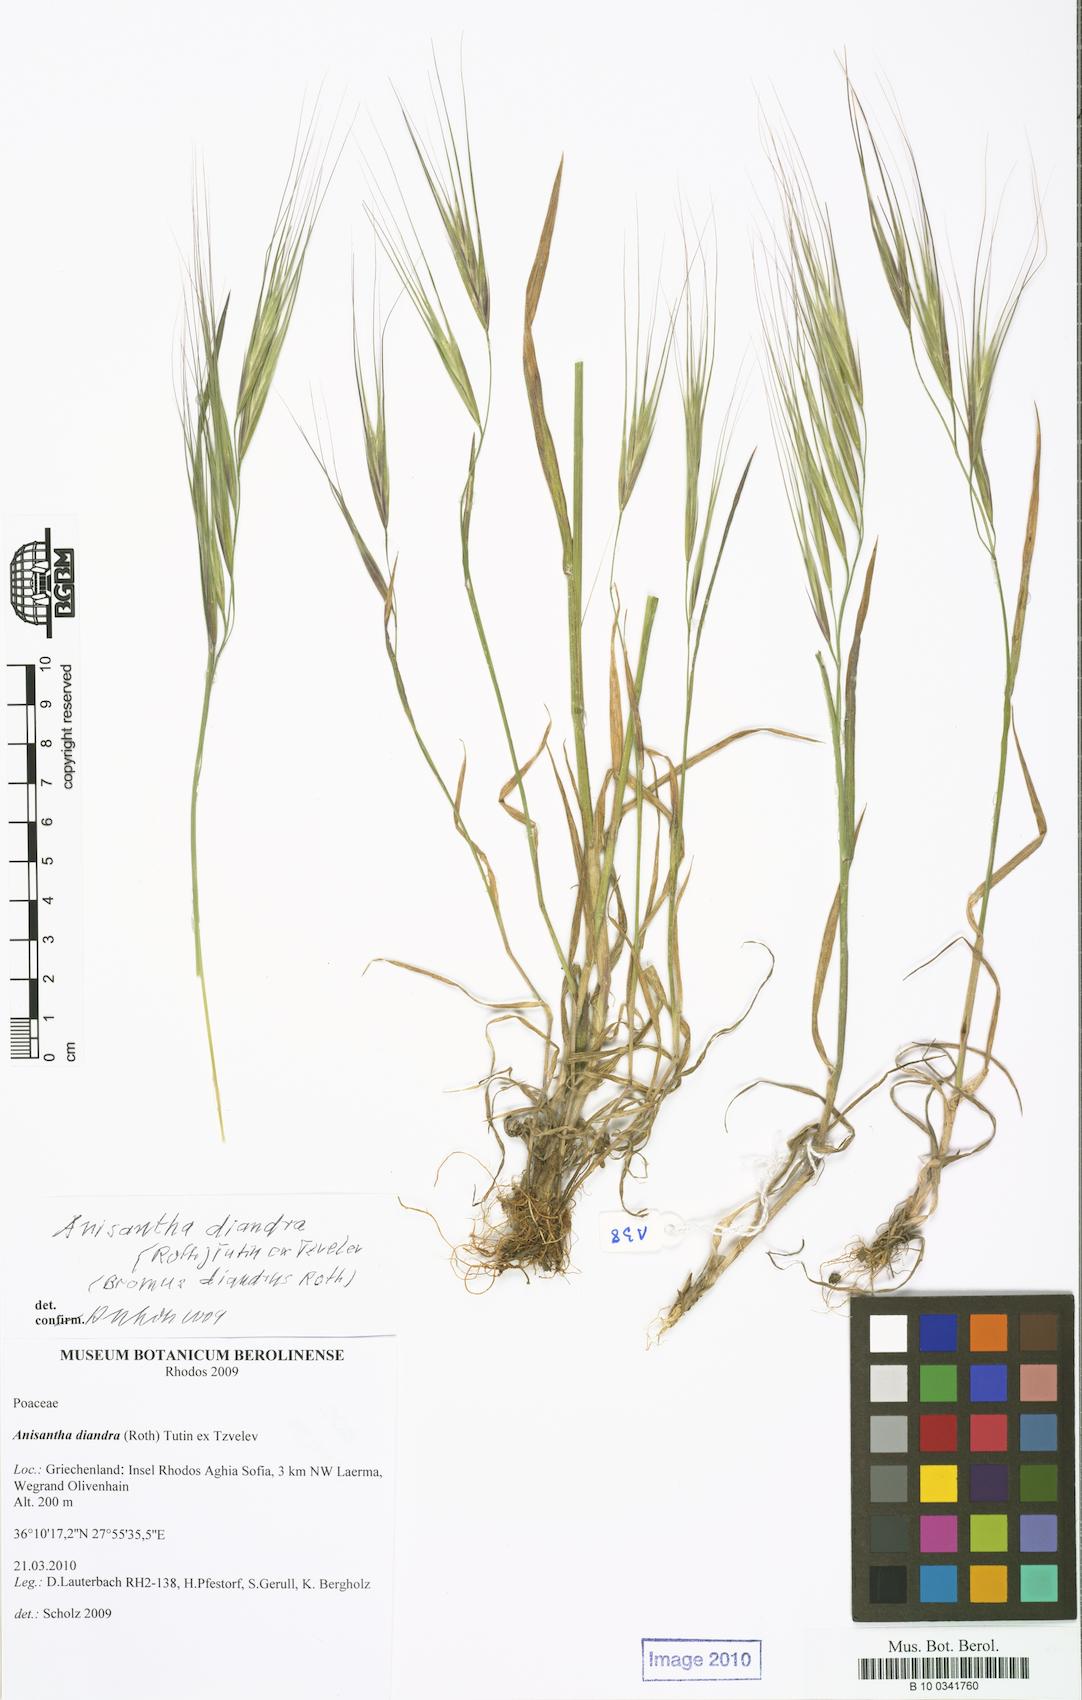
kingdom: Plantae
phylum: Tracheophyta
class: Liliopsida
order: Poales
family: Poaceae
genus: Bromus
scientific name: Bromus diandrus
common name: Ripgut brome
